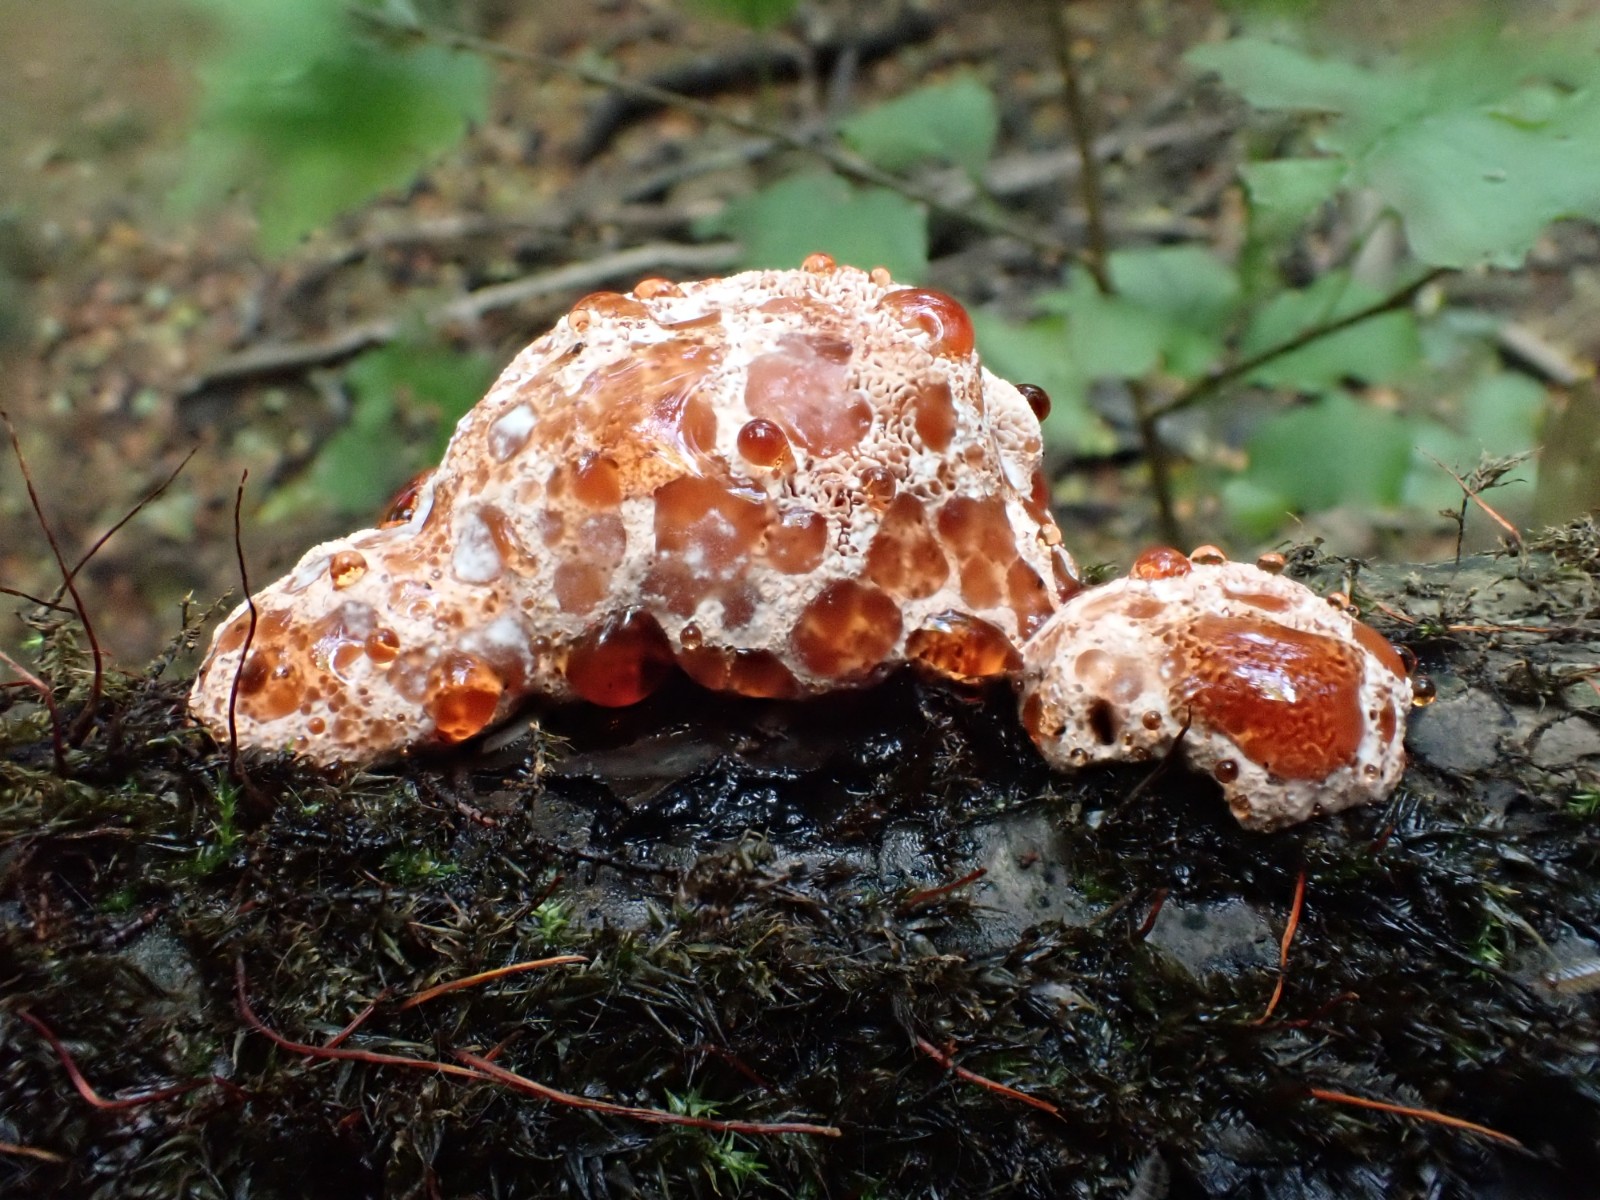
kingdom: Fungi
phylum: Basidiomycota
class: Agaricomycetes
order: Polyporales
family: Podoscyphaceae
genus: Abortiporus
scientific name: Abortiporus biennis
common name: rødmende pjalteporesvamp
